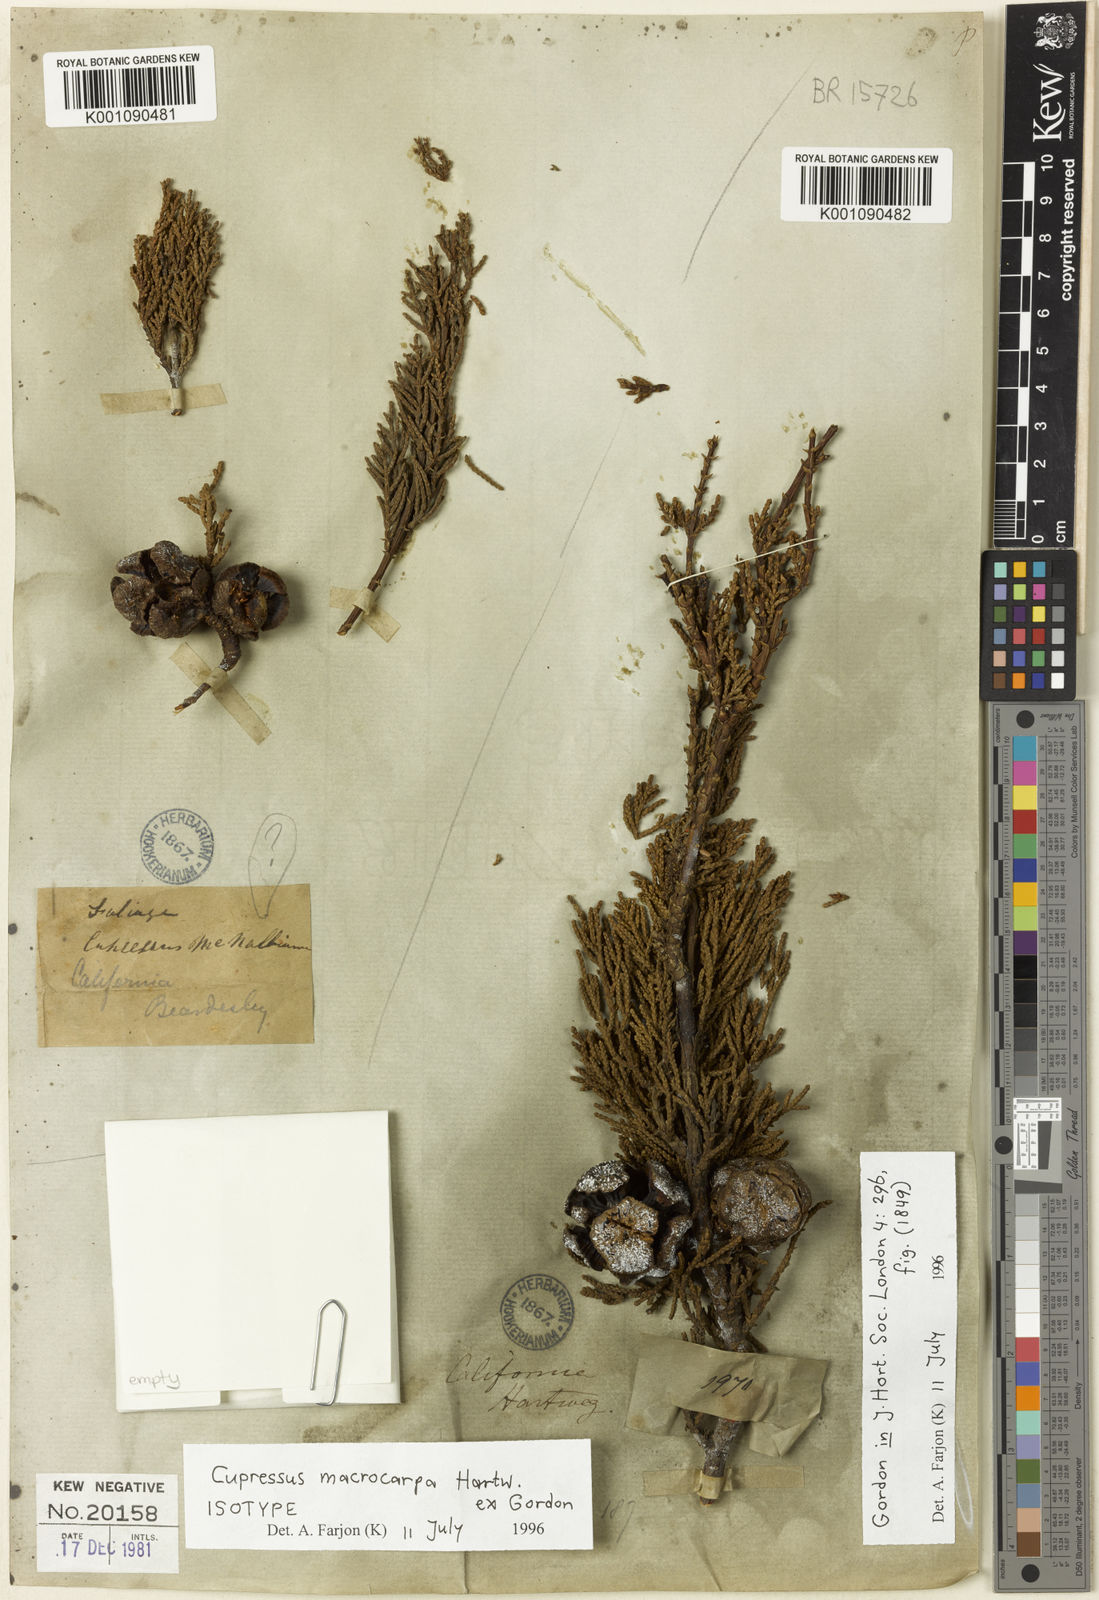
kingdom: Plantae
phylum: Tracheophyta
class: Pinopsida
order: Pinales
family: Cupressaceae
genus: Cupressus
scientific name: Cupressus
